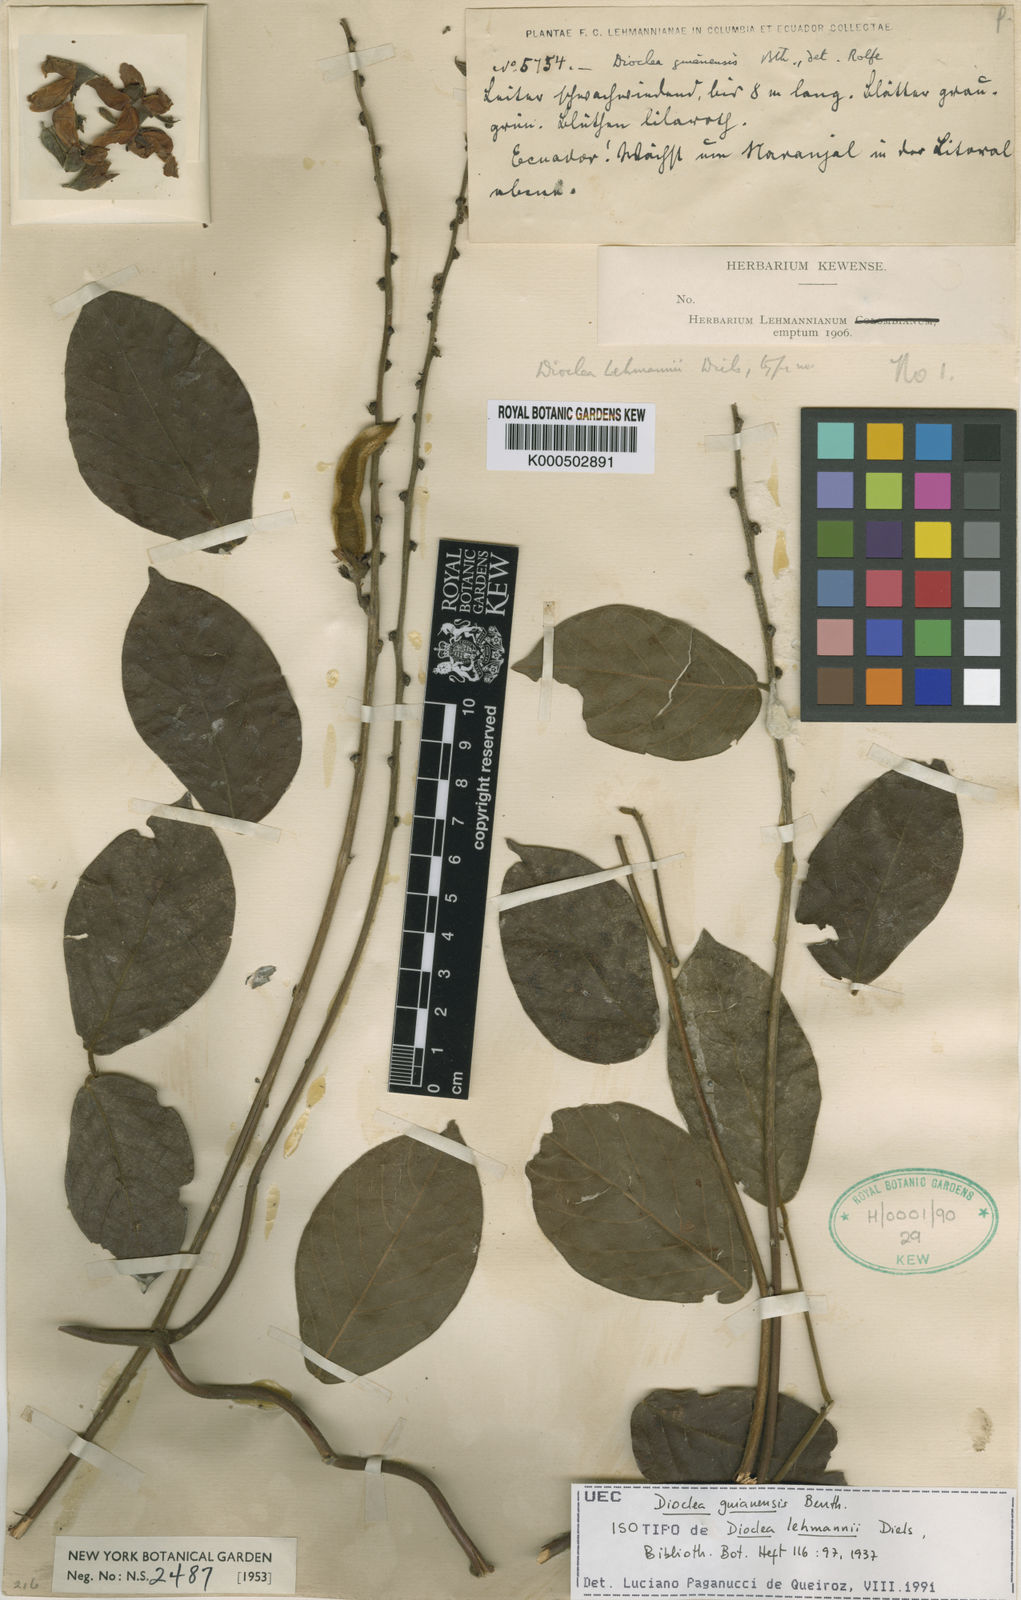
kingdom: Plantae
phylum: Tracheophyta
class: Magnoliopsida
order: Fabales
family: Fabaceae
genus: Dioclea
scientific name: Dioclea guianensis
